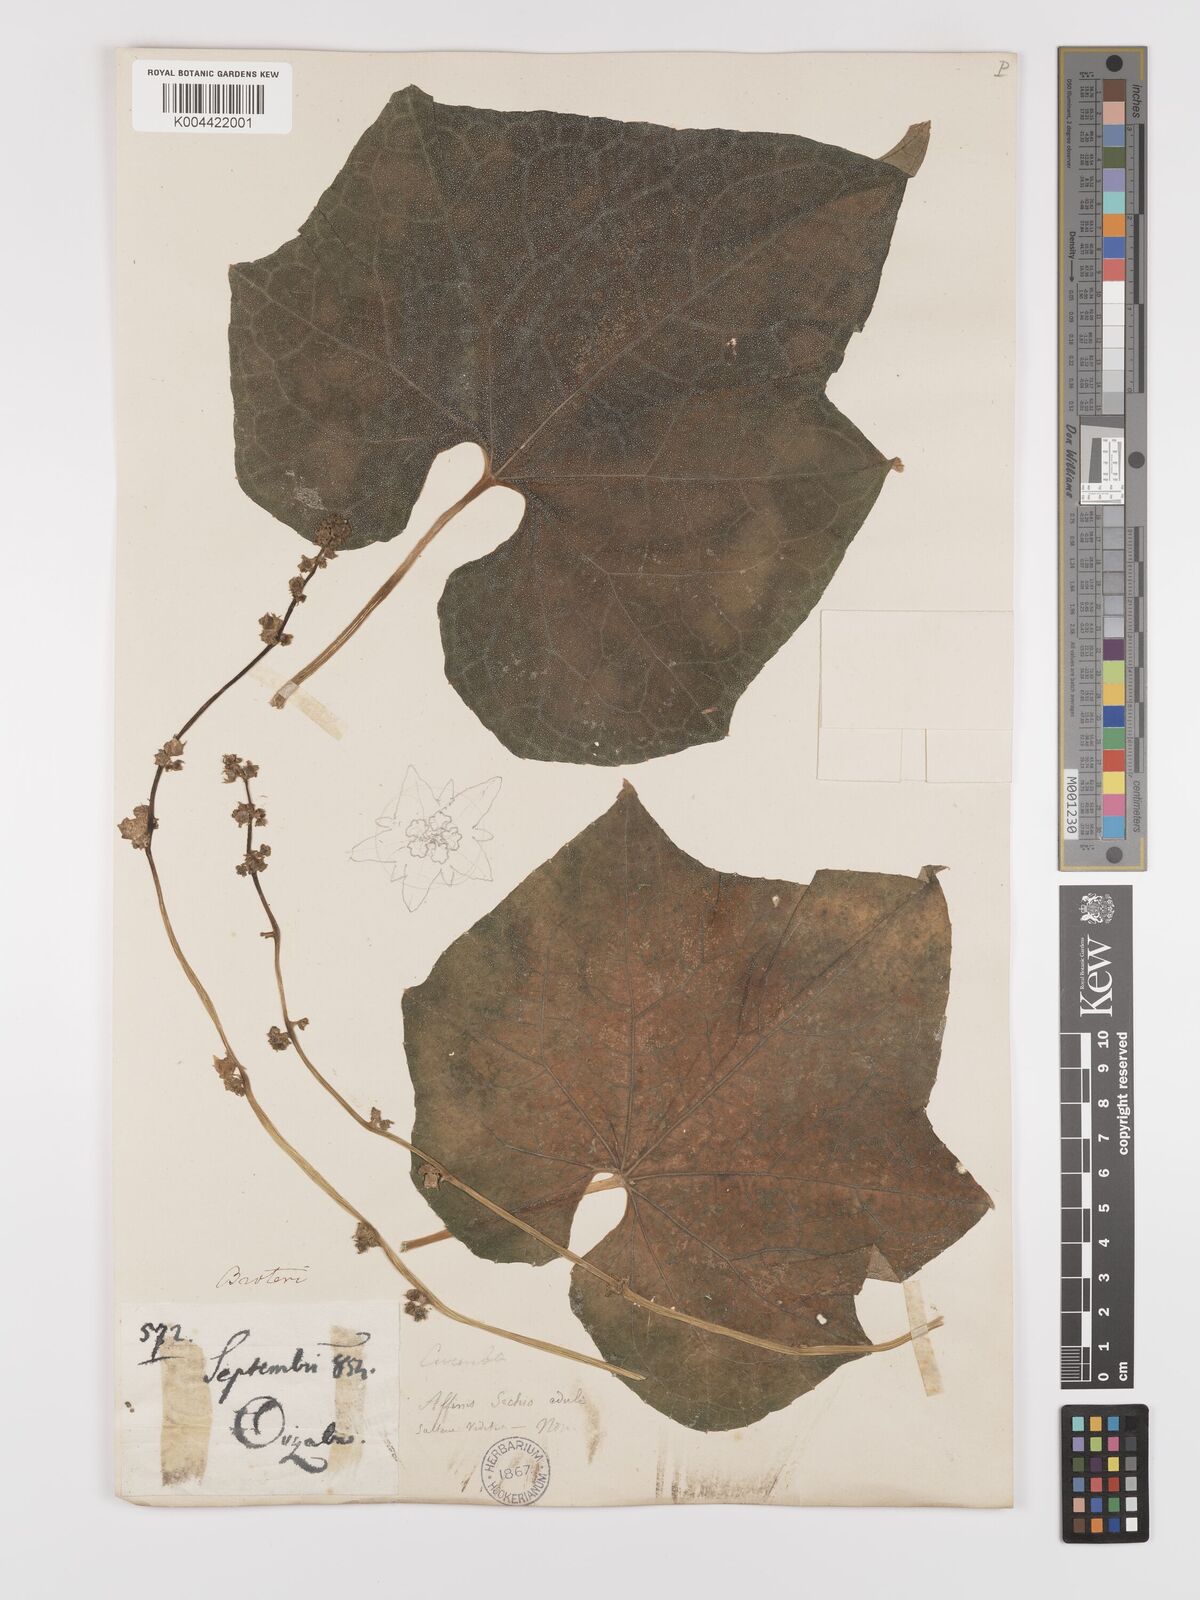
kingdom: Plantae
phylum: Tracheophyta
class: Magnoliopsida
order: Cucurbitales
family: Cucurbitaceae
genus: Sechium
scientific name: Sechium edule
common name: Chayote
